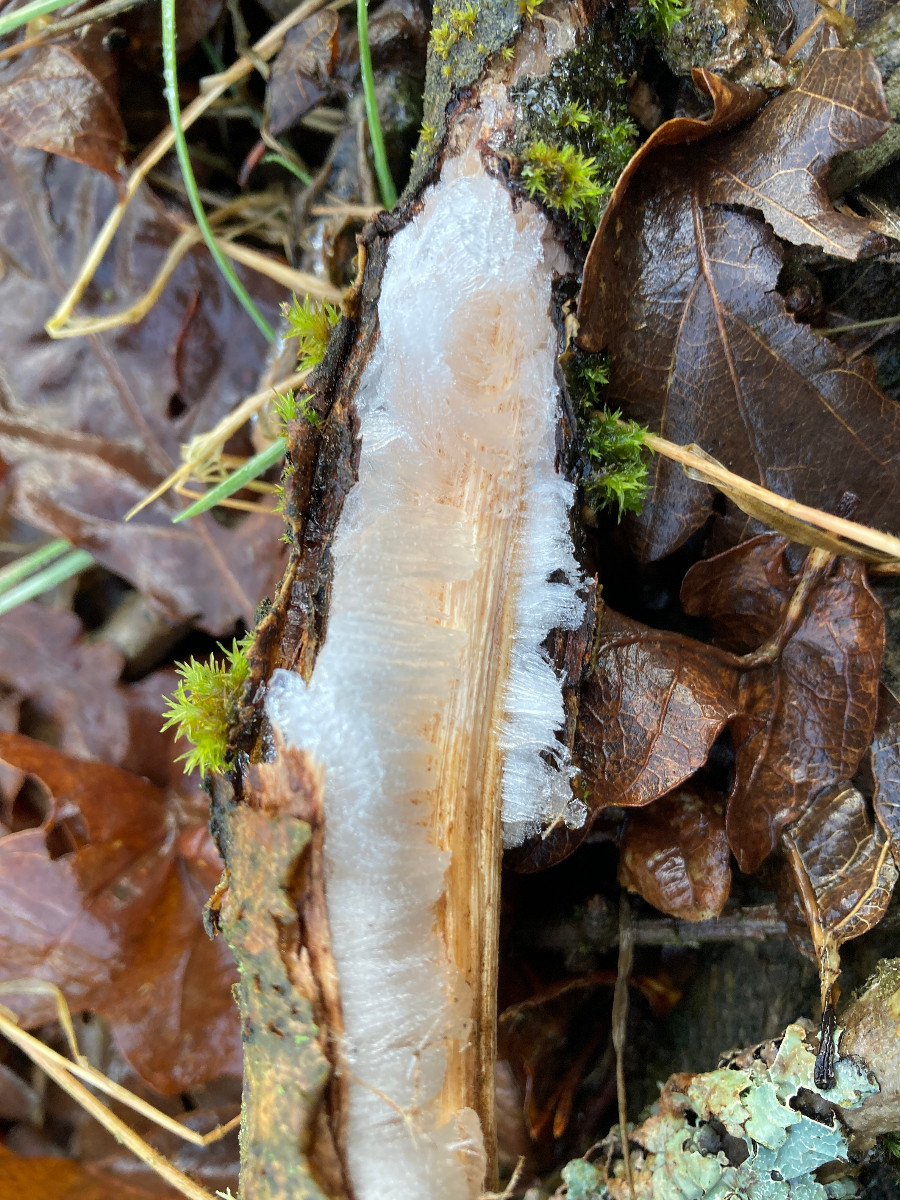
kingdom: Fungi
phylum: Basidiomycota
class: Tremellomycetes
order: Tremellales
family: Exidiaceae
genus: Exidiopsis
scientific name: Exidiopsis effusa
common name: smuk bævrehinde
